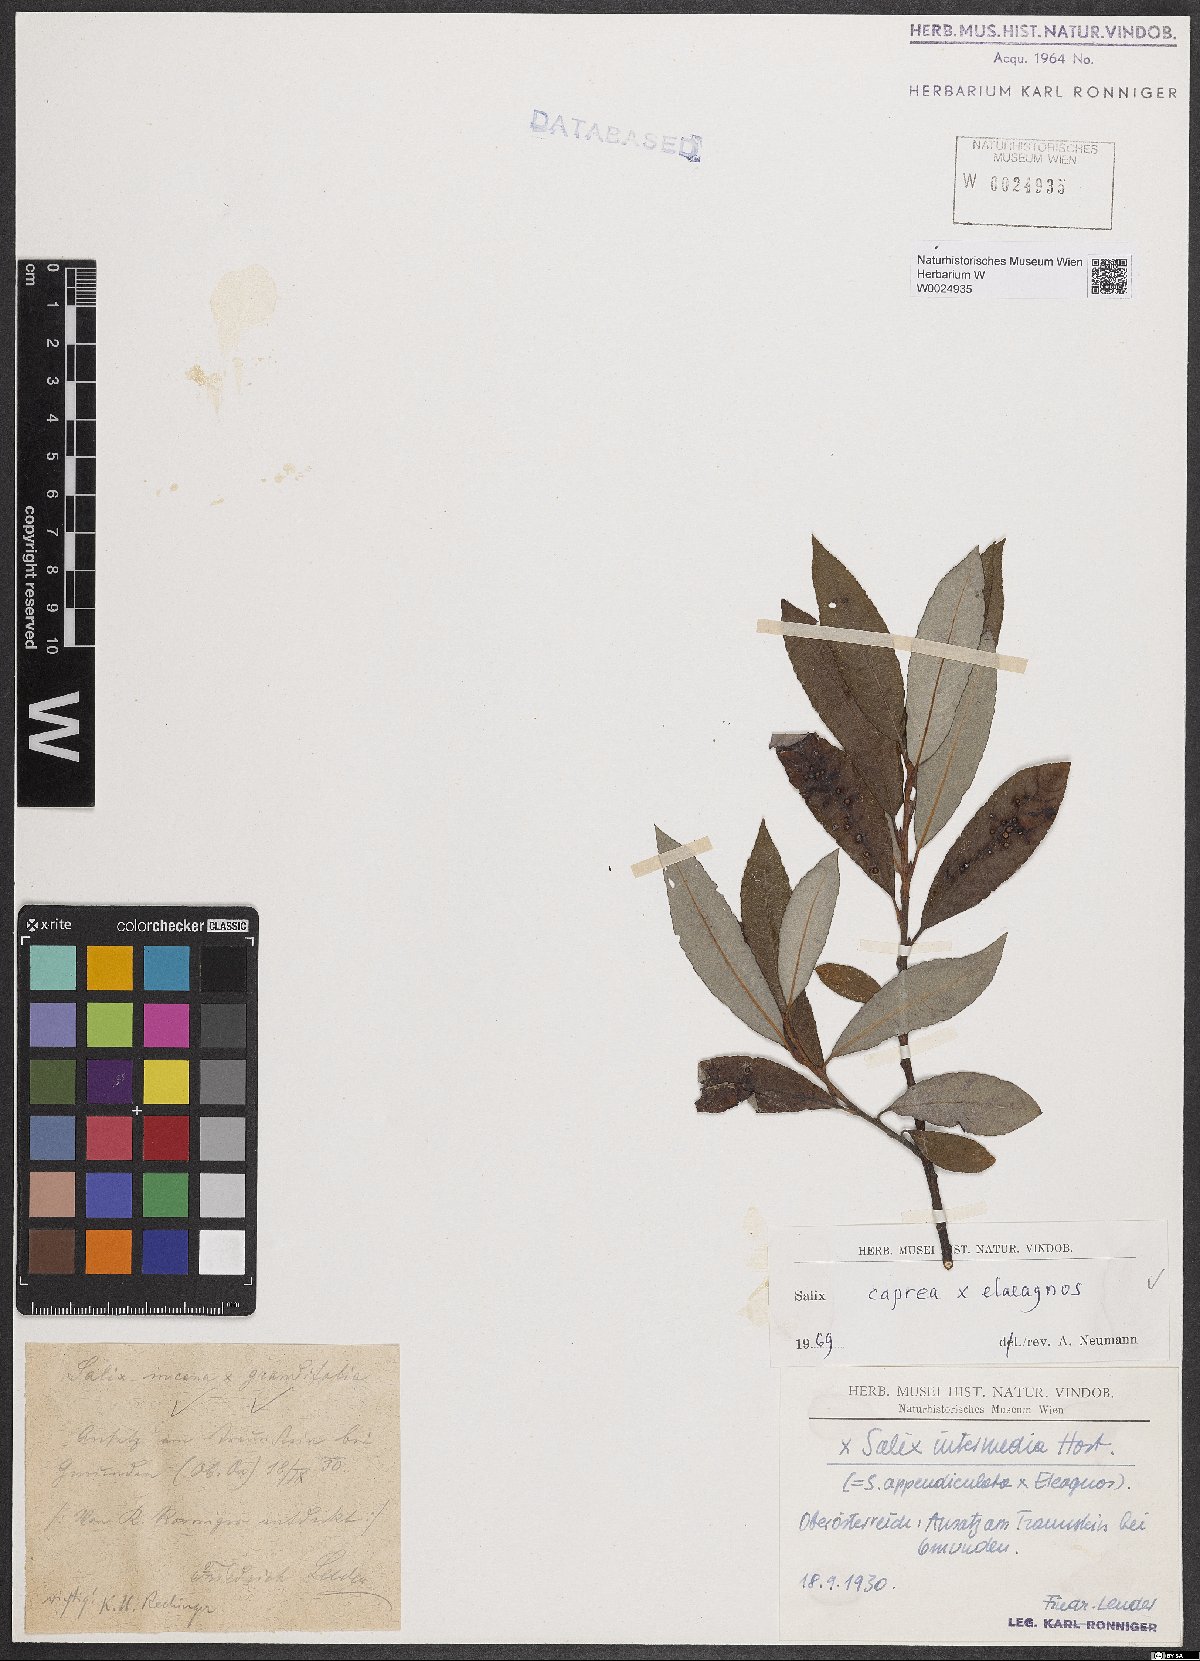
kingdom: Plantae
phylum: Tracheophyta
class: Magnoliopsida
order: Malpighiales
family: Salicaceae
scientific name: Salicaceae
